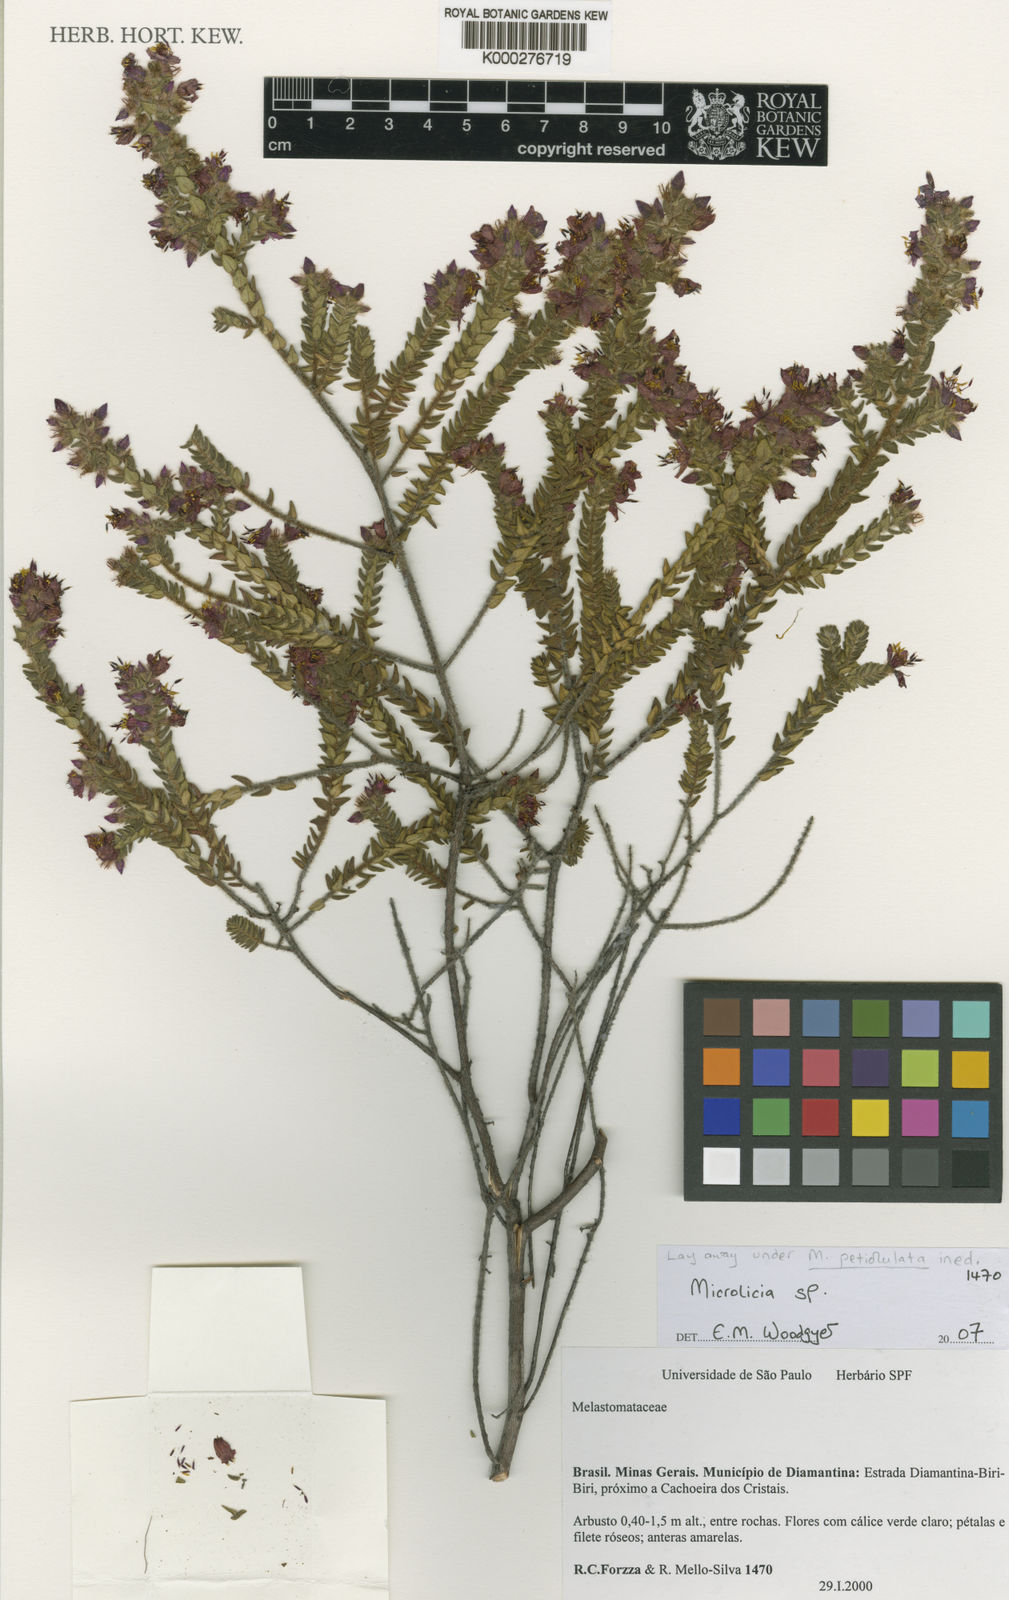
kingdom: Plantae
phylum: Tracheophyta
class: Magnoliopsida
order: Myrtales
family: Melastomataceae
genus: Microlicia
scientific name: Microlicia petiolulata
